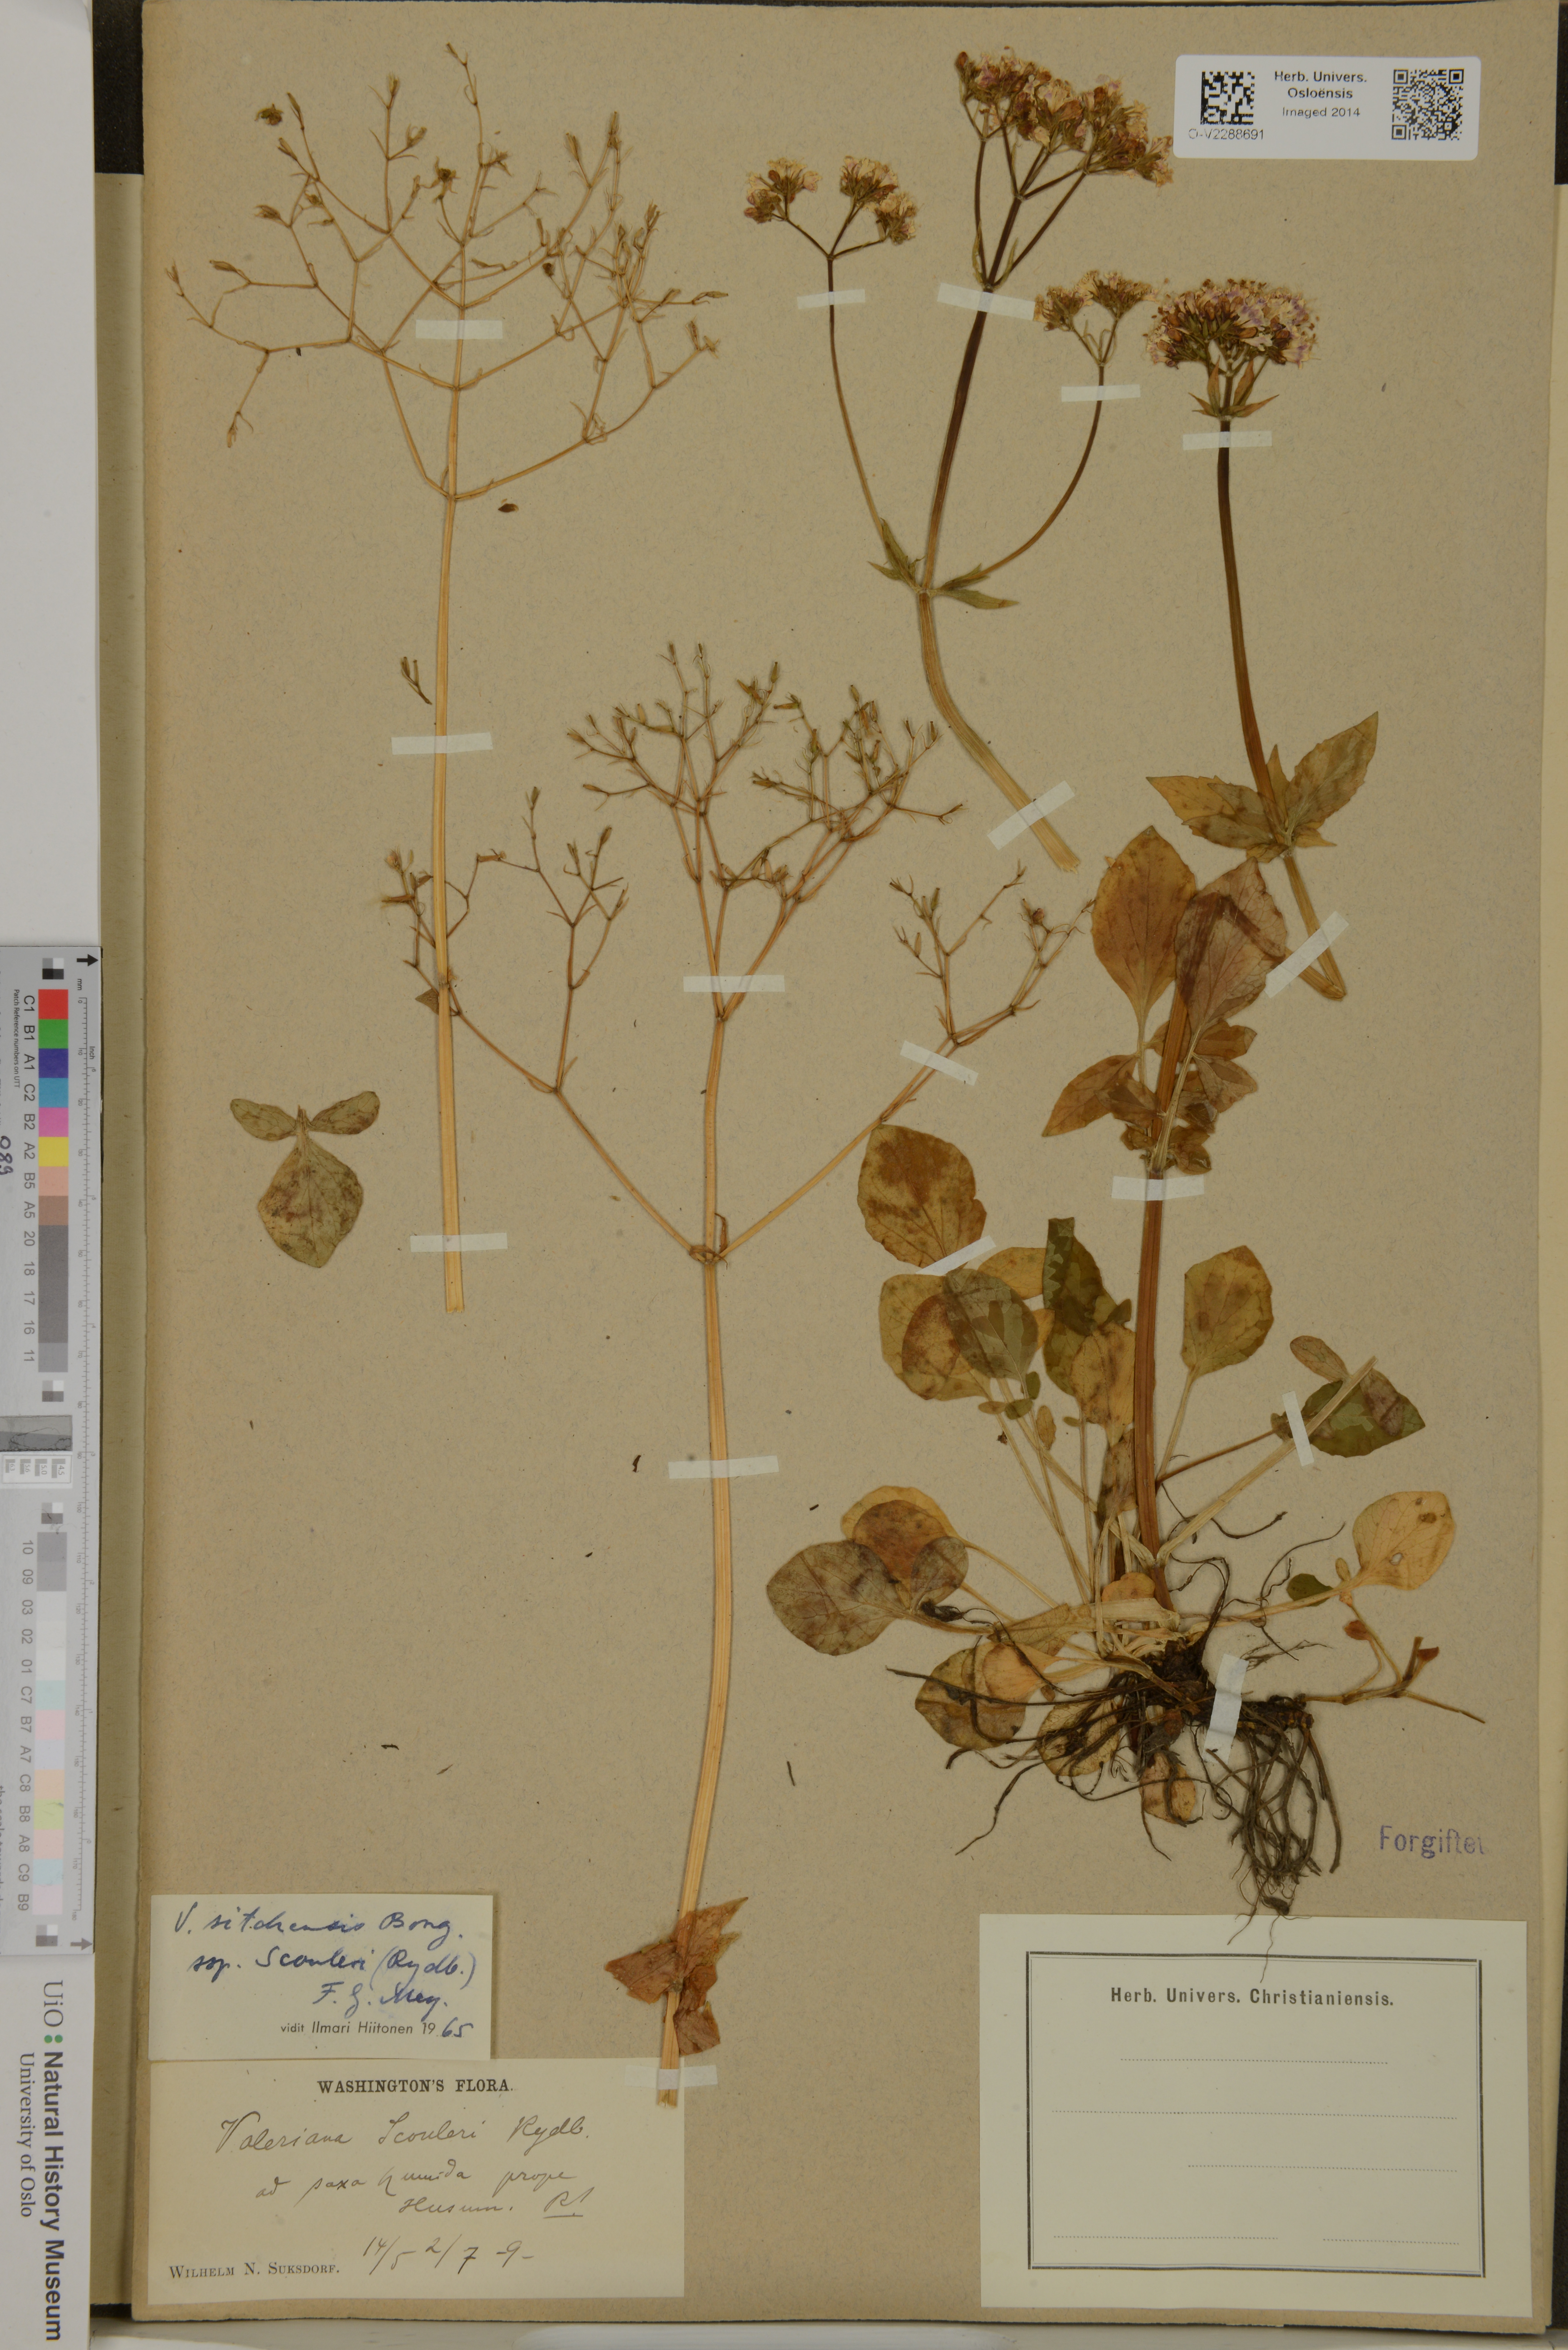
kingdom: Plantae
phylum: Tracheophyta
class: Magnoliopsida
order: Dipsacales
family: Caprifoliaceae
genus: Valeriana
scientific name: Valeriana scouleri
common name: Scouler's valerian
